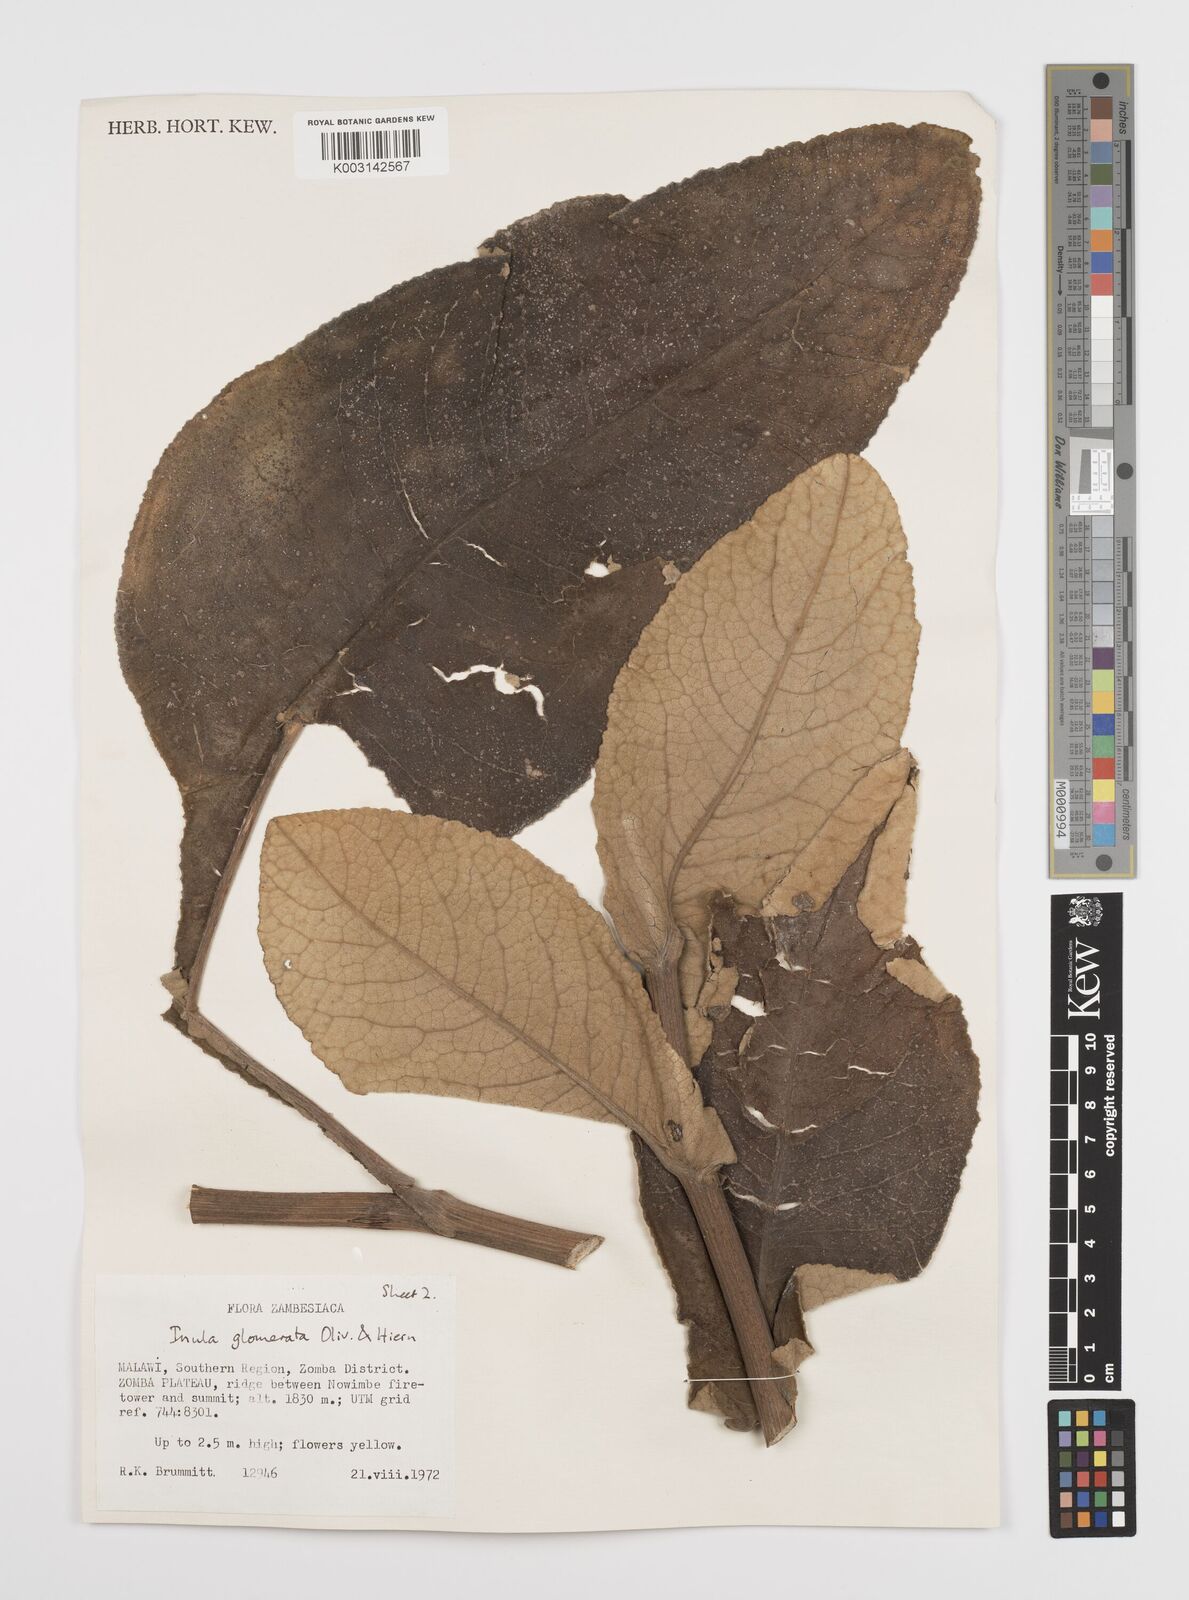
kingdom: Plantae
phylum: Tracheophyta
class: Magnoliopsida
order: Asterales
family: Asteraceae
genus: Inula
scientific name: Inula glomerata
